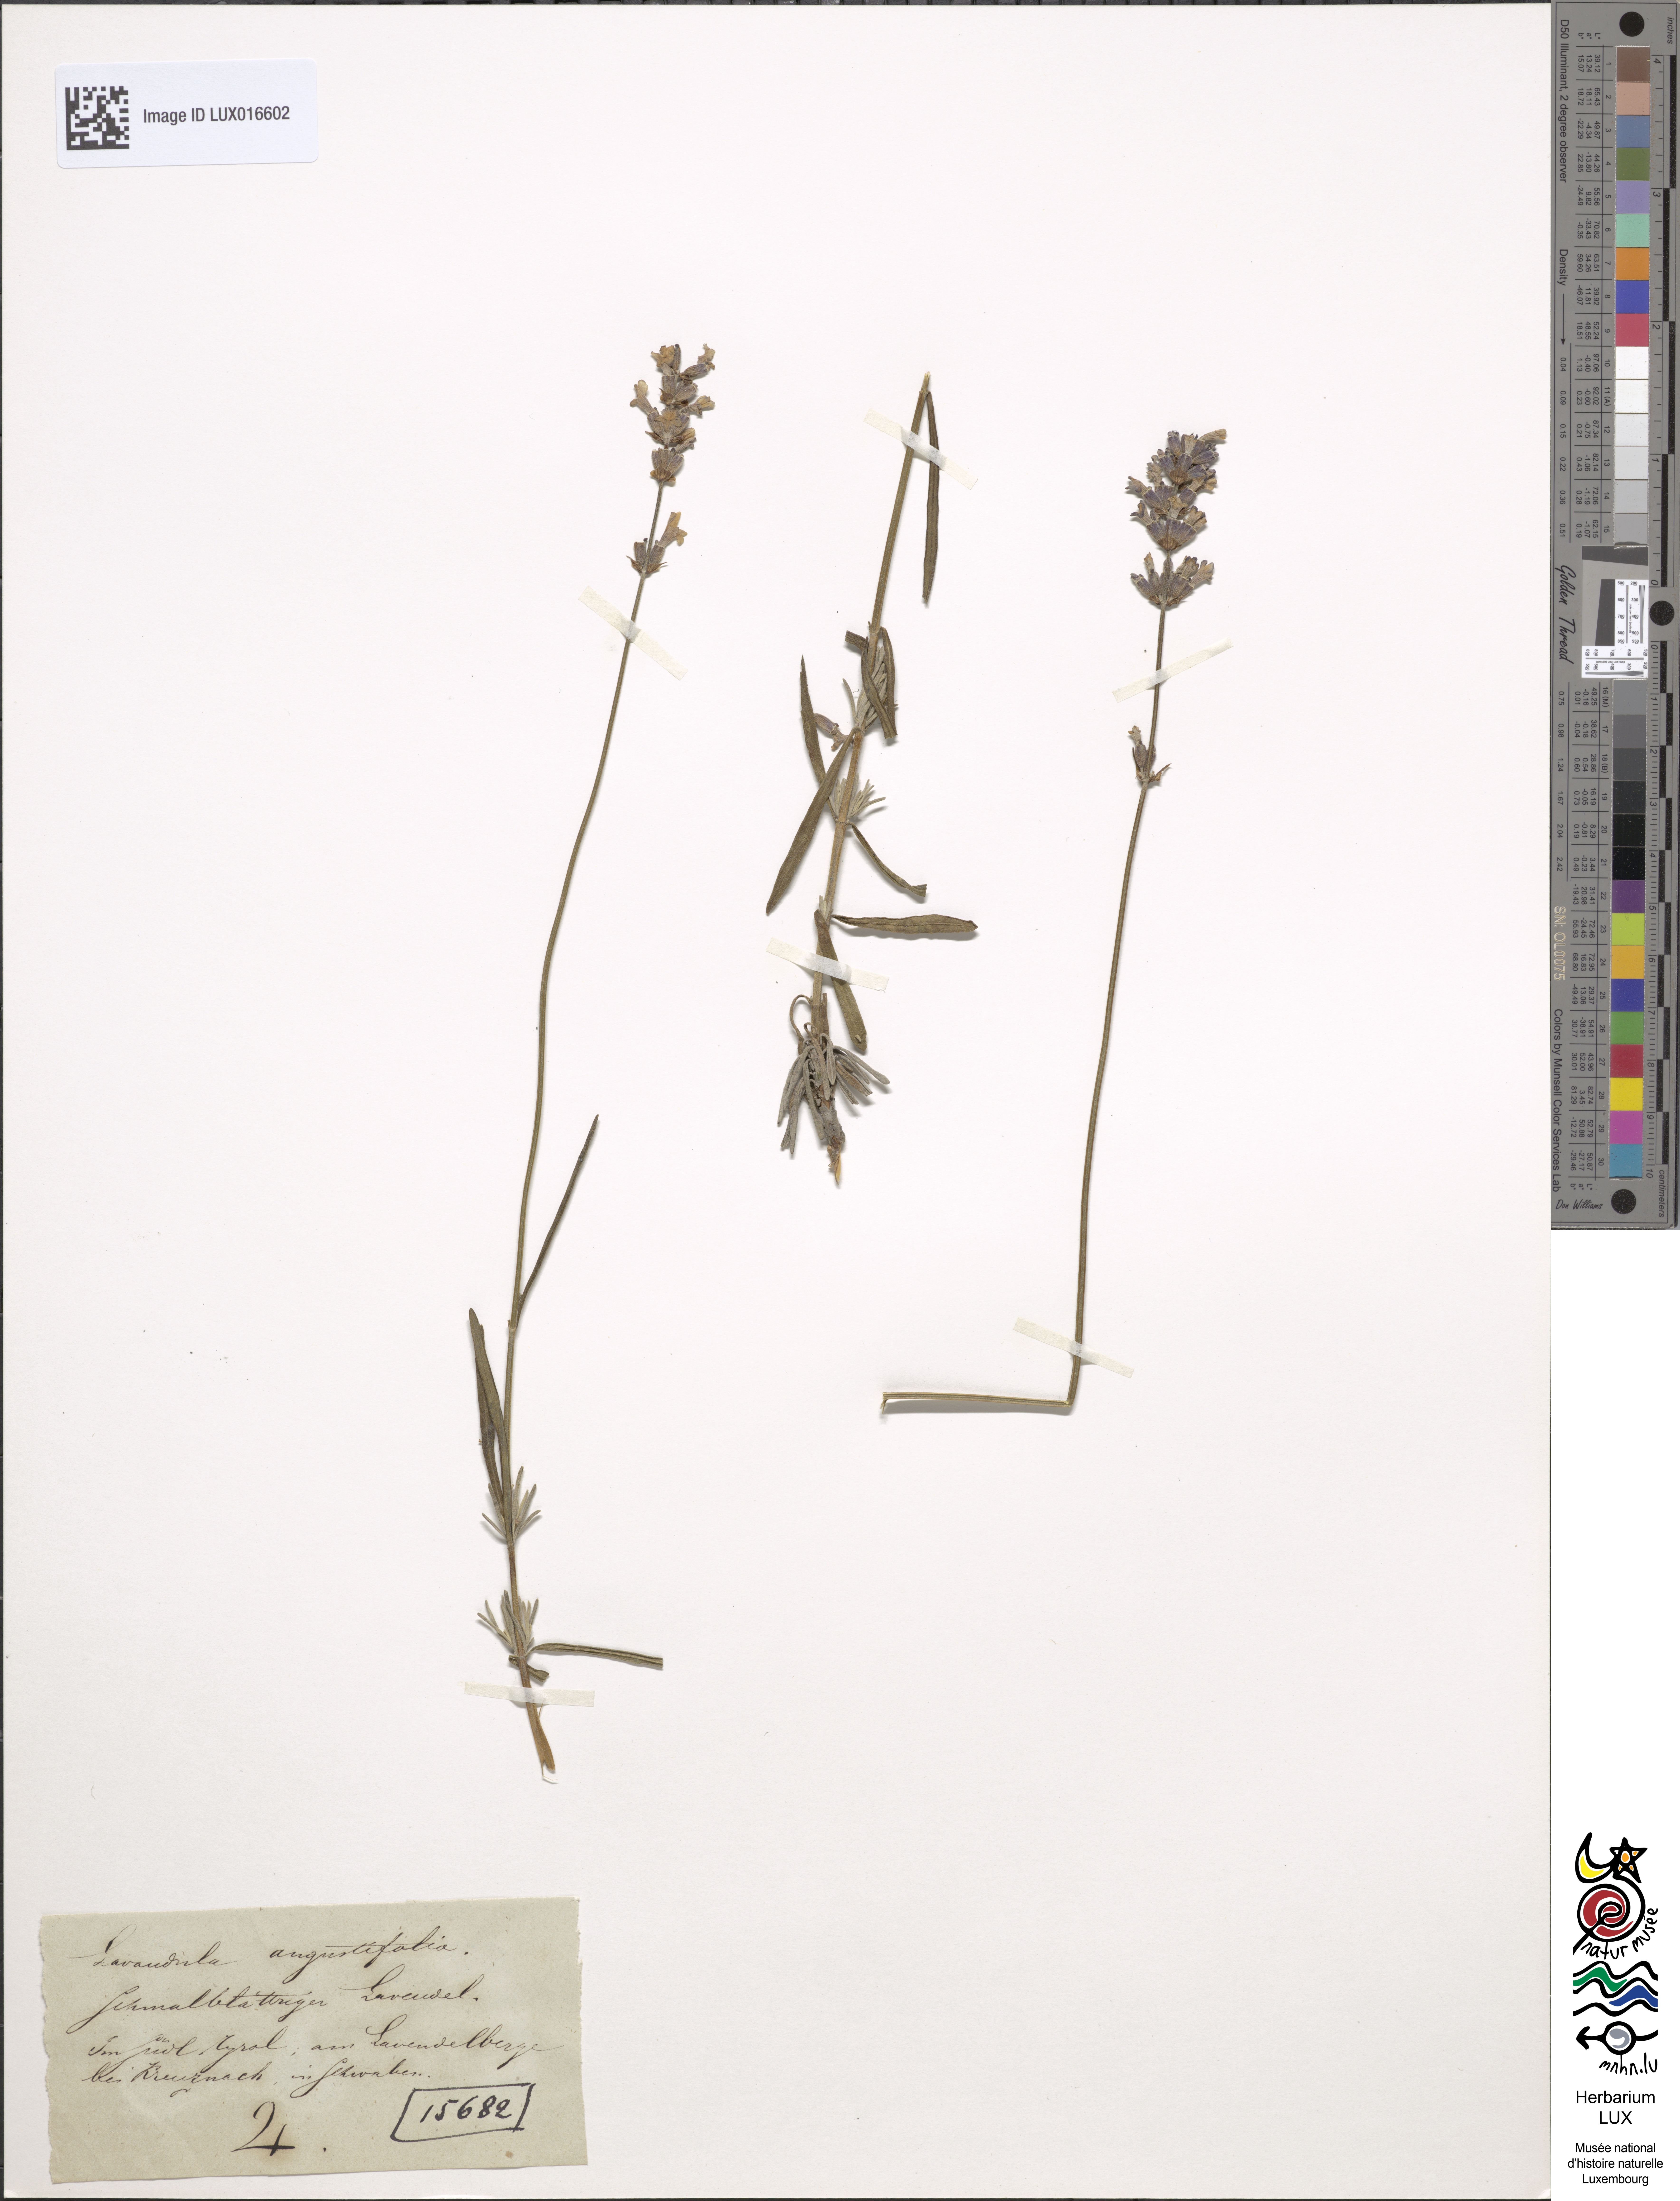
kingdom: Plantae
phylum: Tracheophyta
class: Magnoliopsida
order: Lamiales
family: Lamiaceae
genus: Lavandula
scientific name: Lavandula angustifolia
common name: Garden lavender
